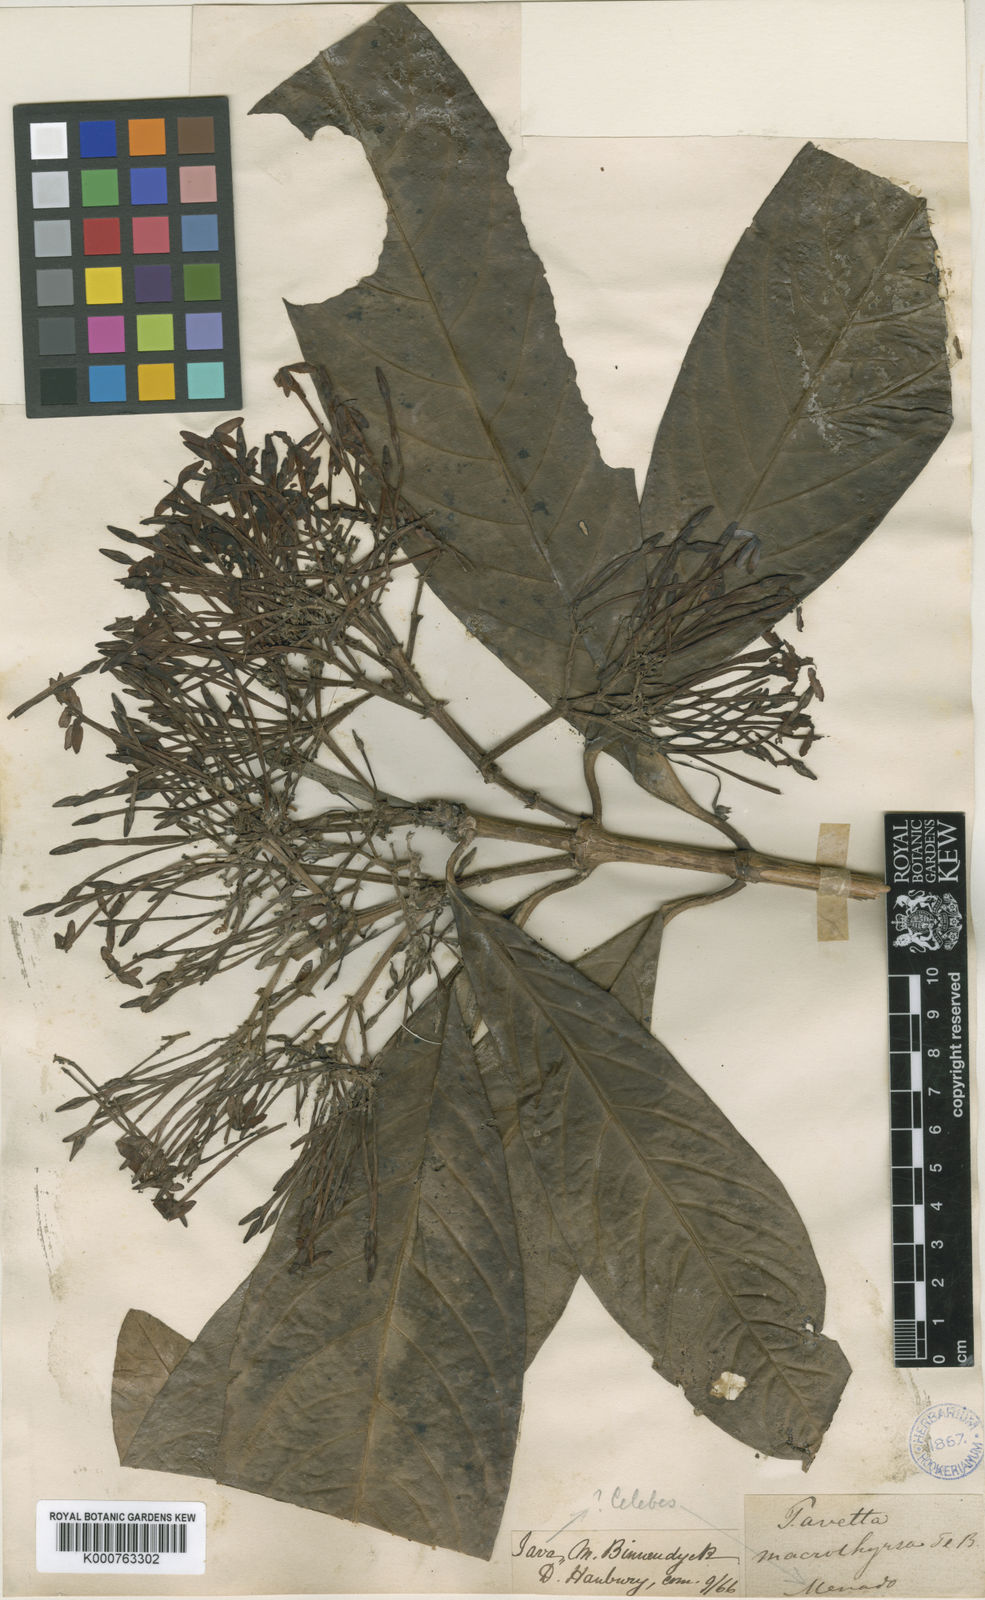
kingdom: Plantae
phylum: Tracheophyta
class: Magnoliopsida
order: Gentianales
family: Rubiaceae
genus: Ixora
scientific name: Ixora
